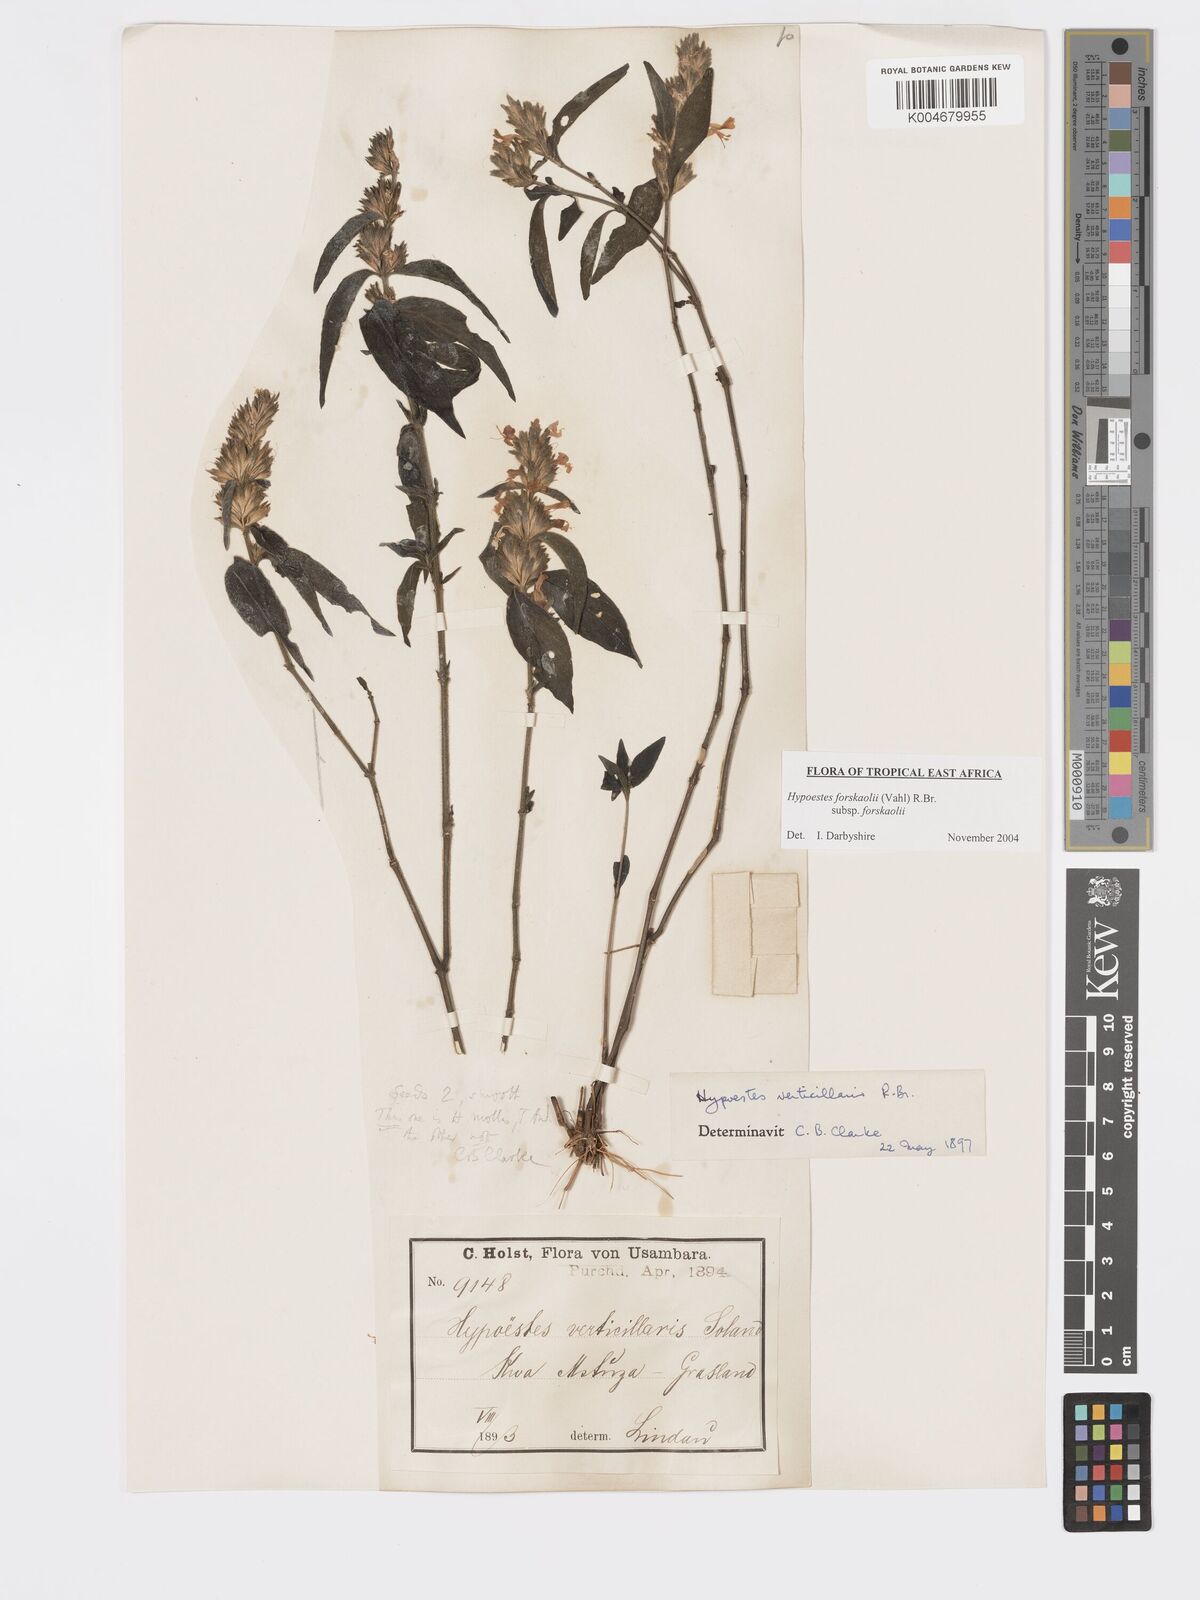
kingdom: Plantae
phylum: Tracheophyta
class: Magnoliopsida
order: Lamiales
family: Acanthaceae
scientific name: Acanthaceae
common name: Acanthaceae
